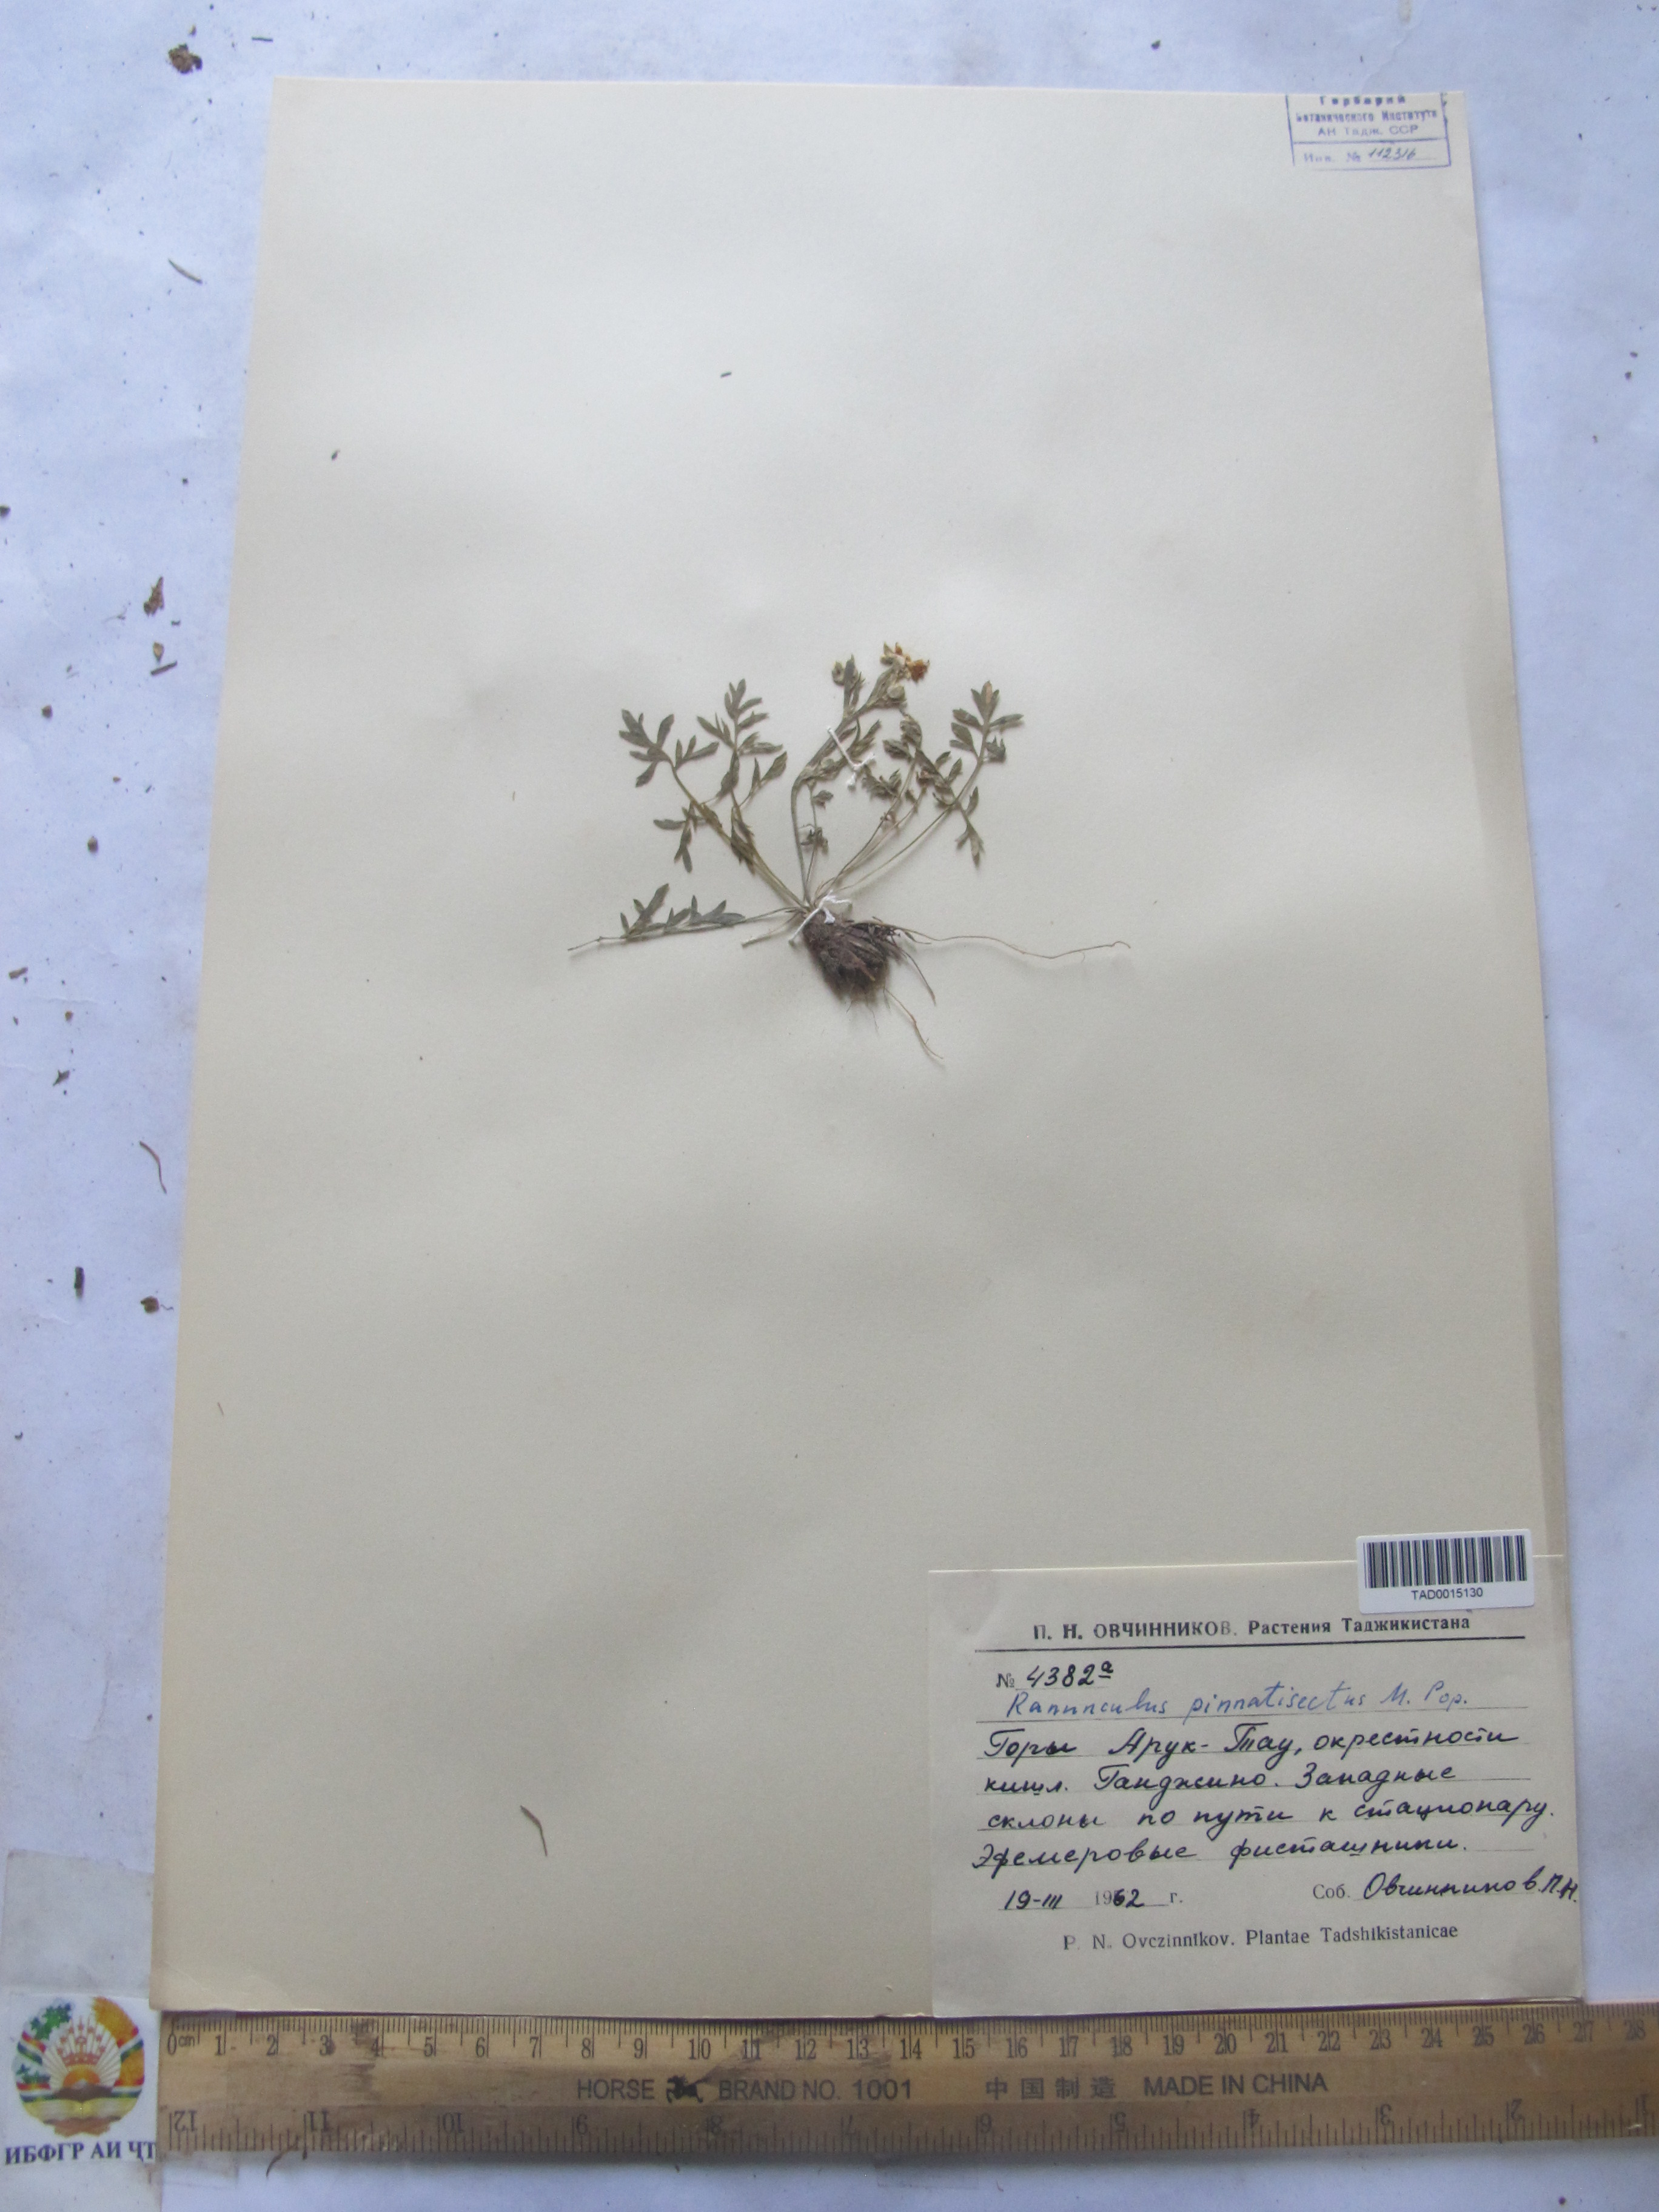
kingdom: Plantae
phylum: Tracheophyta
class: Magnoliopsida
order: Ranunculales
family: Ranunculaceae
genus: Ranunculus
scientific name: Ranunculus pinnatisectus
